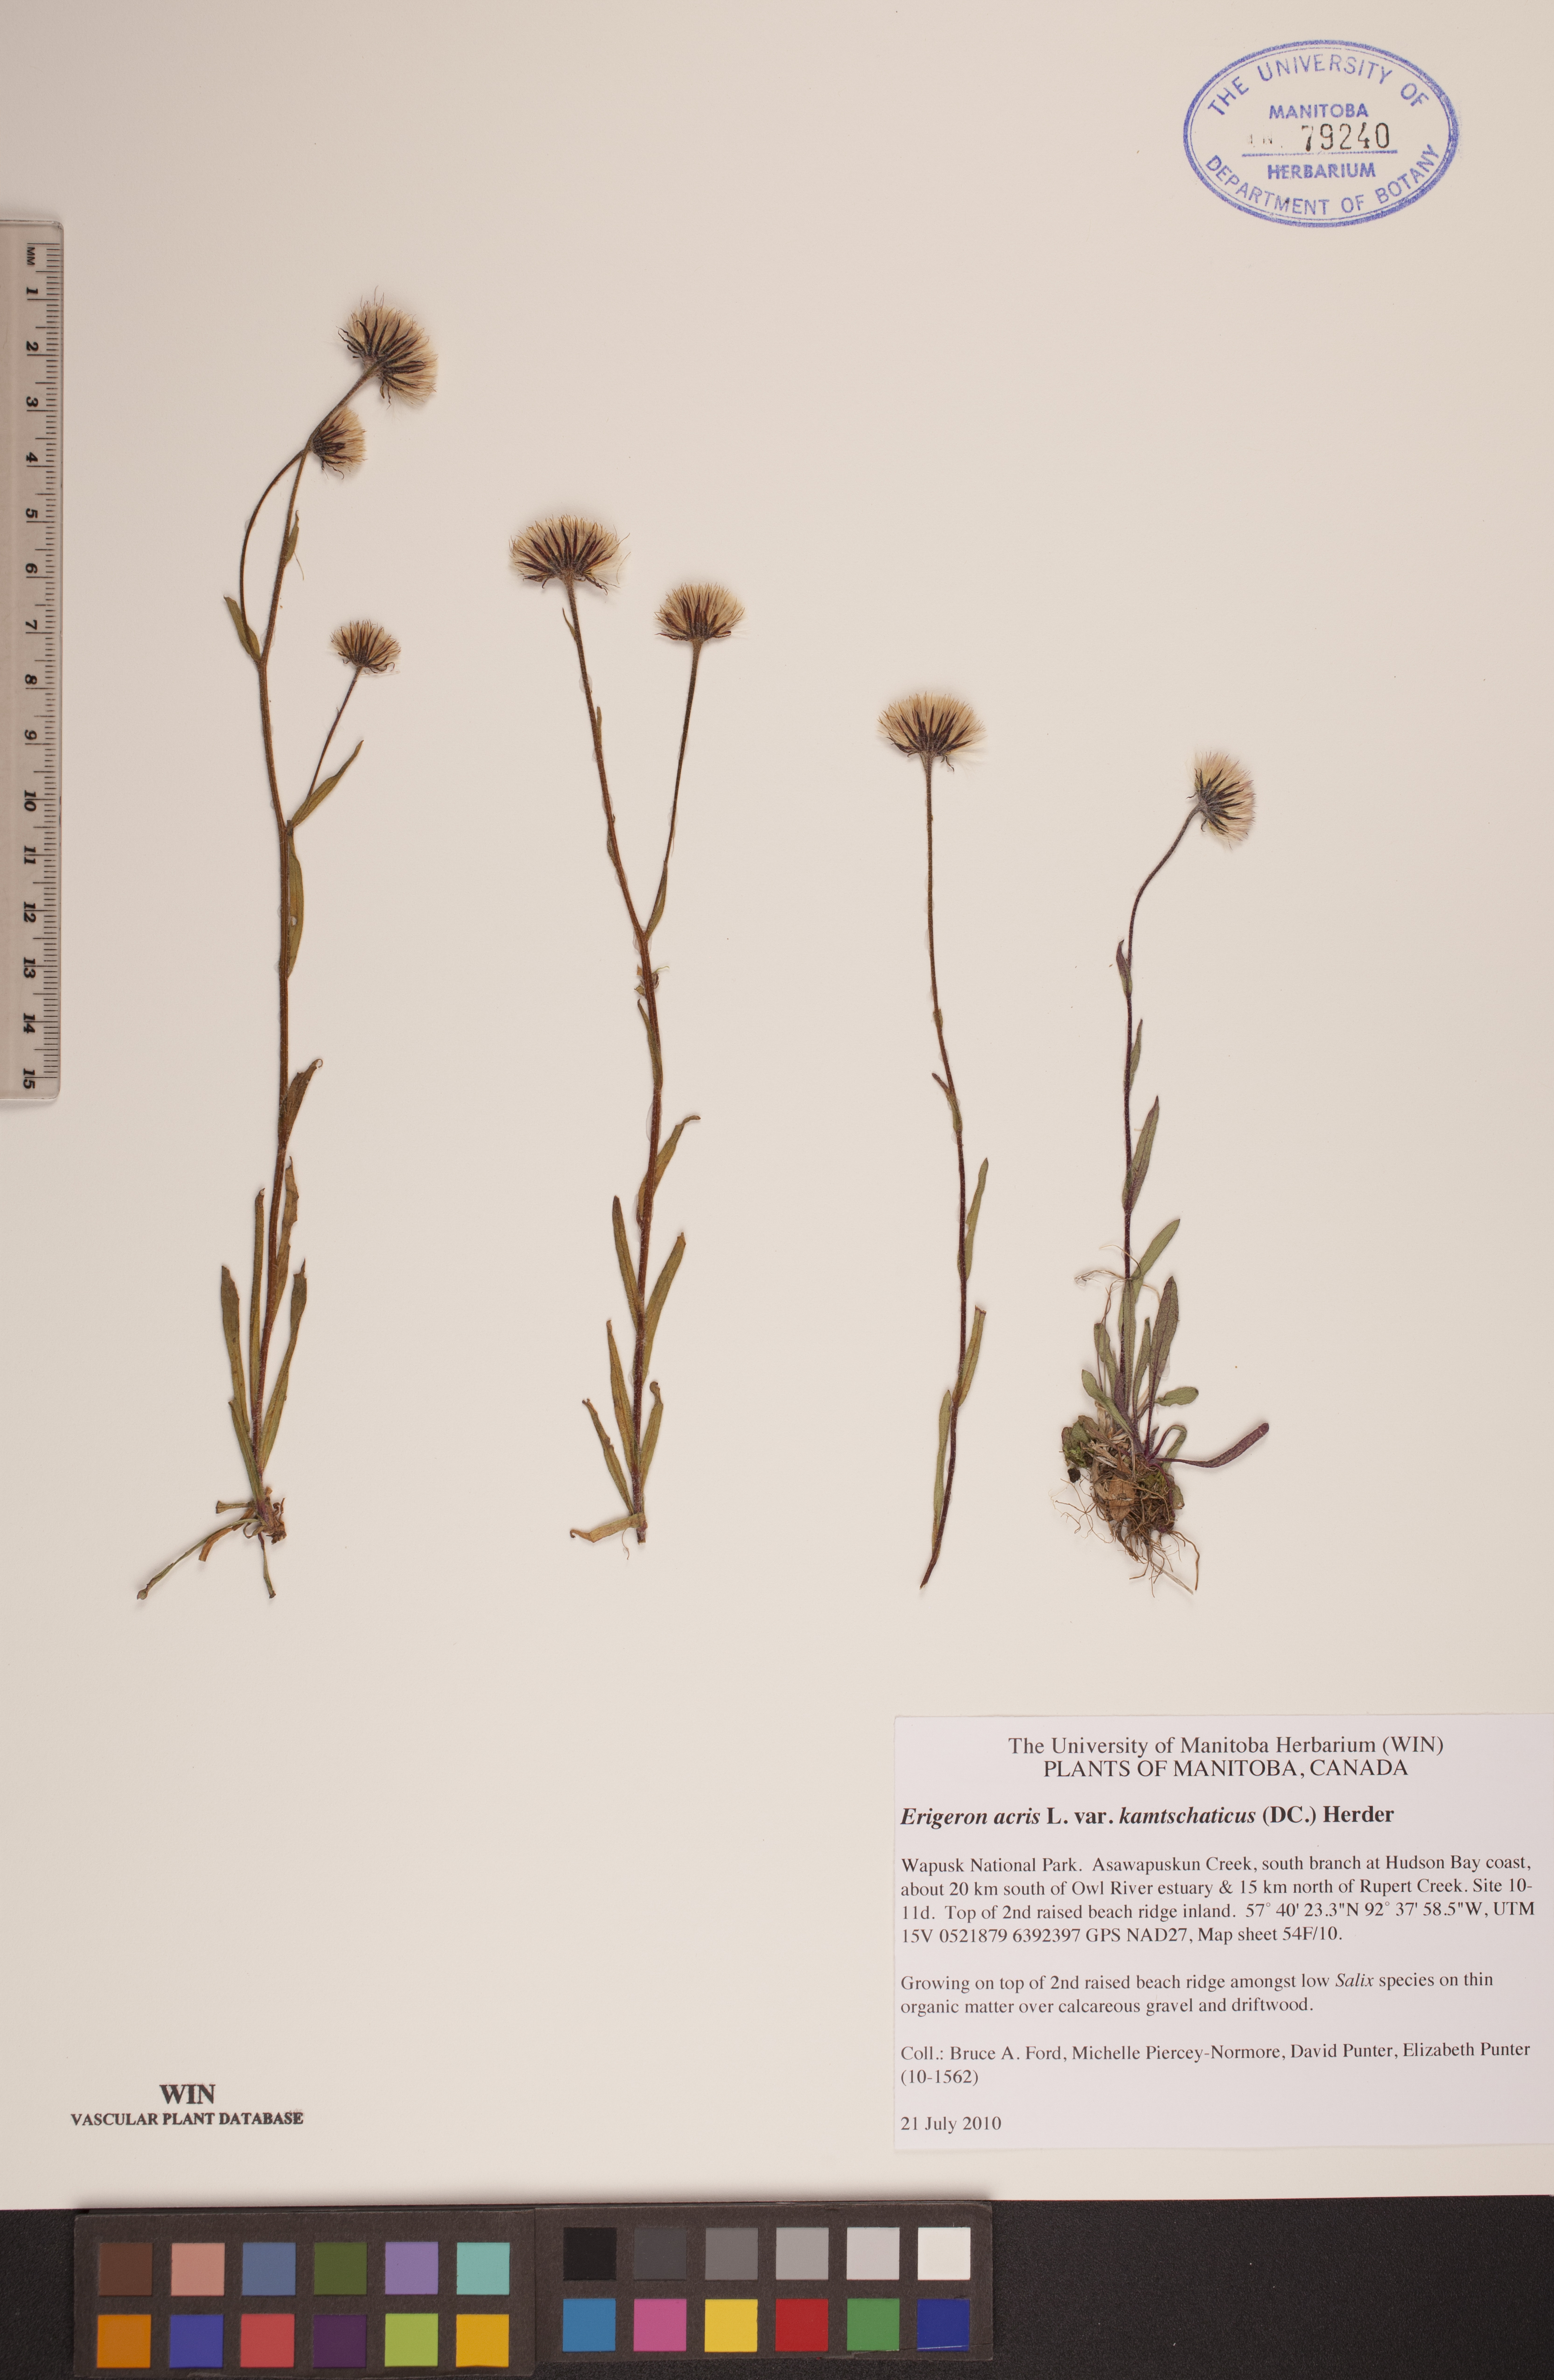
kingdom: Plantae
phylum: Tracheophyta
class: Magnoliopsida
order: Asterales
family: Asteraceae
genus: Erigeron
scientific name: Erigeron kamtschaticus
